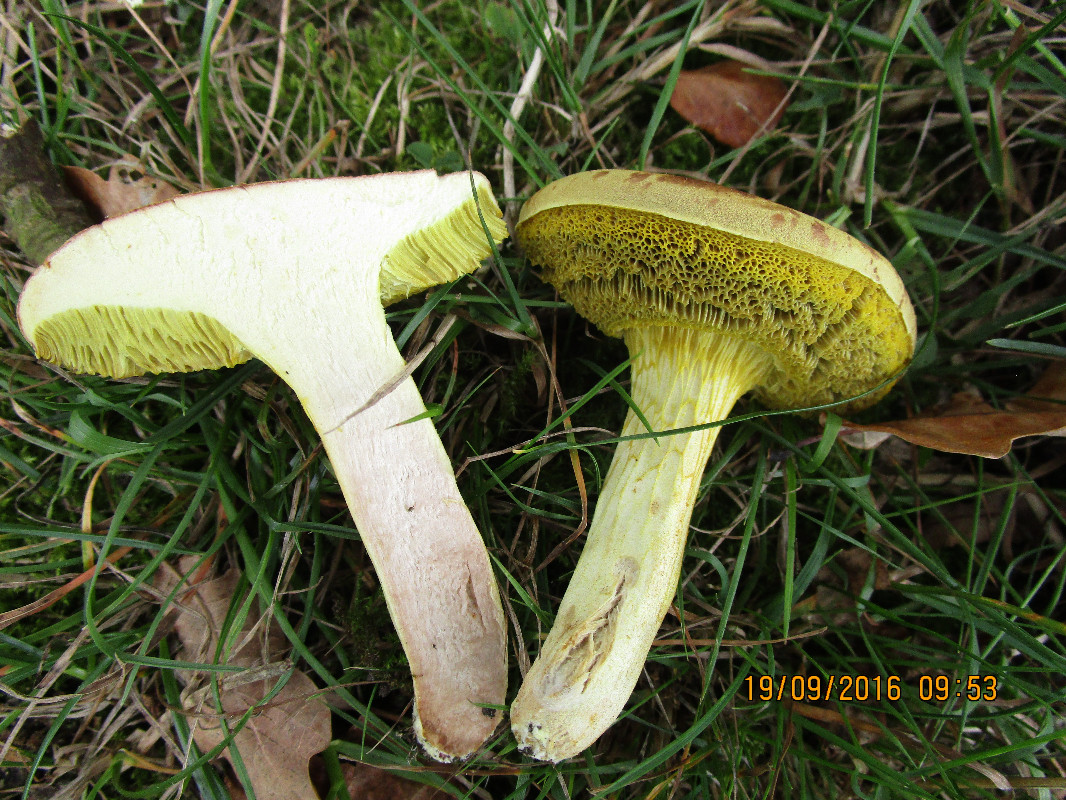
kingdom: Fungi
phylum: Basidiomycota
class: Agaricomycetes
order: Boletales
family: Boletaceae
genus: Xerocomus
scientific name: Xerocomus subtomentosus
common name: filtet rørhat
